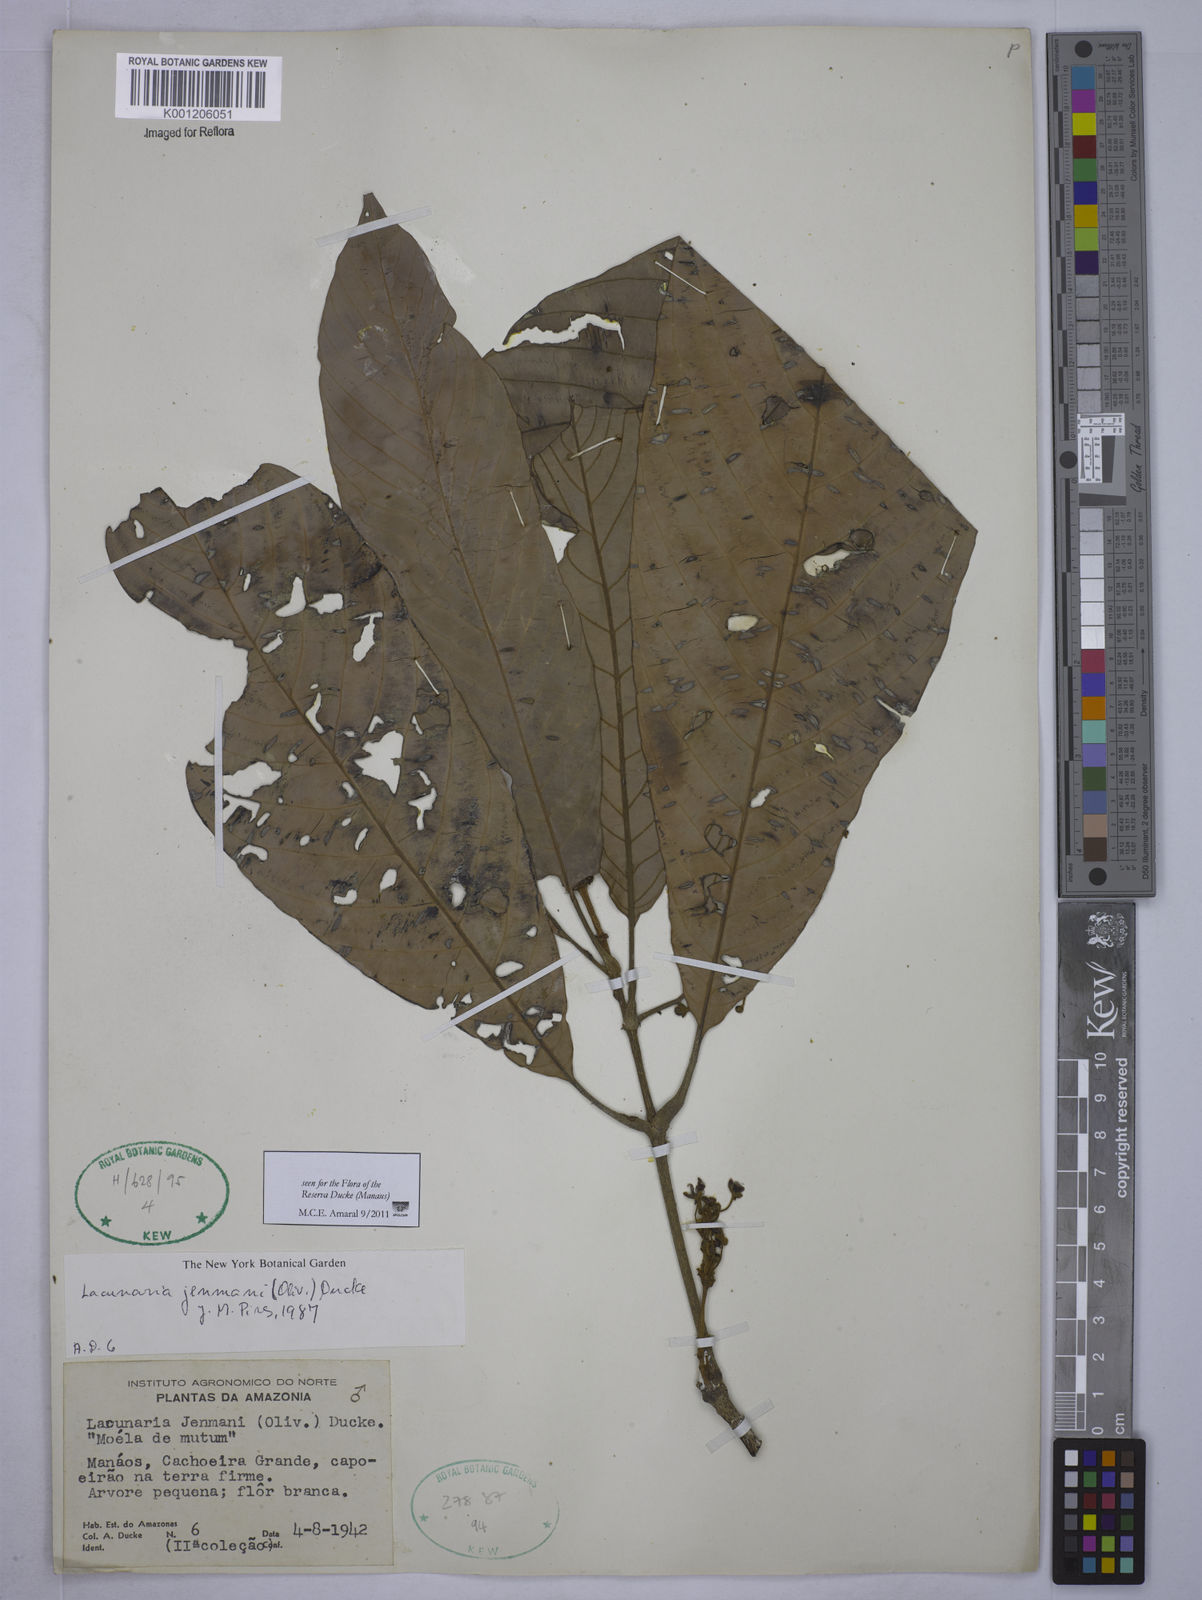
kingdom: Plantae
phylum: Tracheophyta
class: Magnoliopsida
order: Malpighiales
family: Quiinaceae
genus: Lacunaria
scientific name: Lacunaria jenmanii
